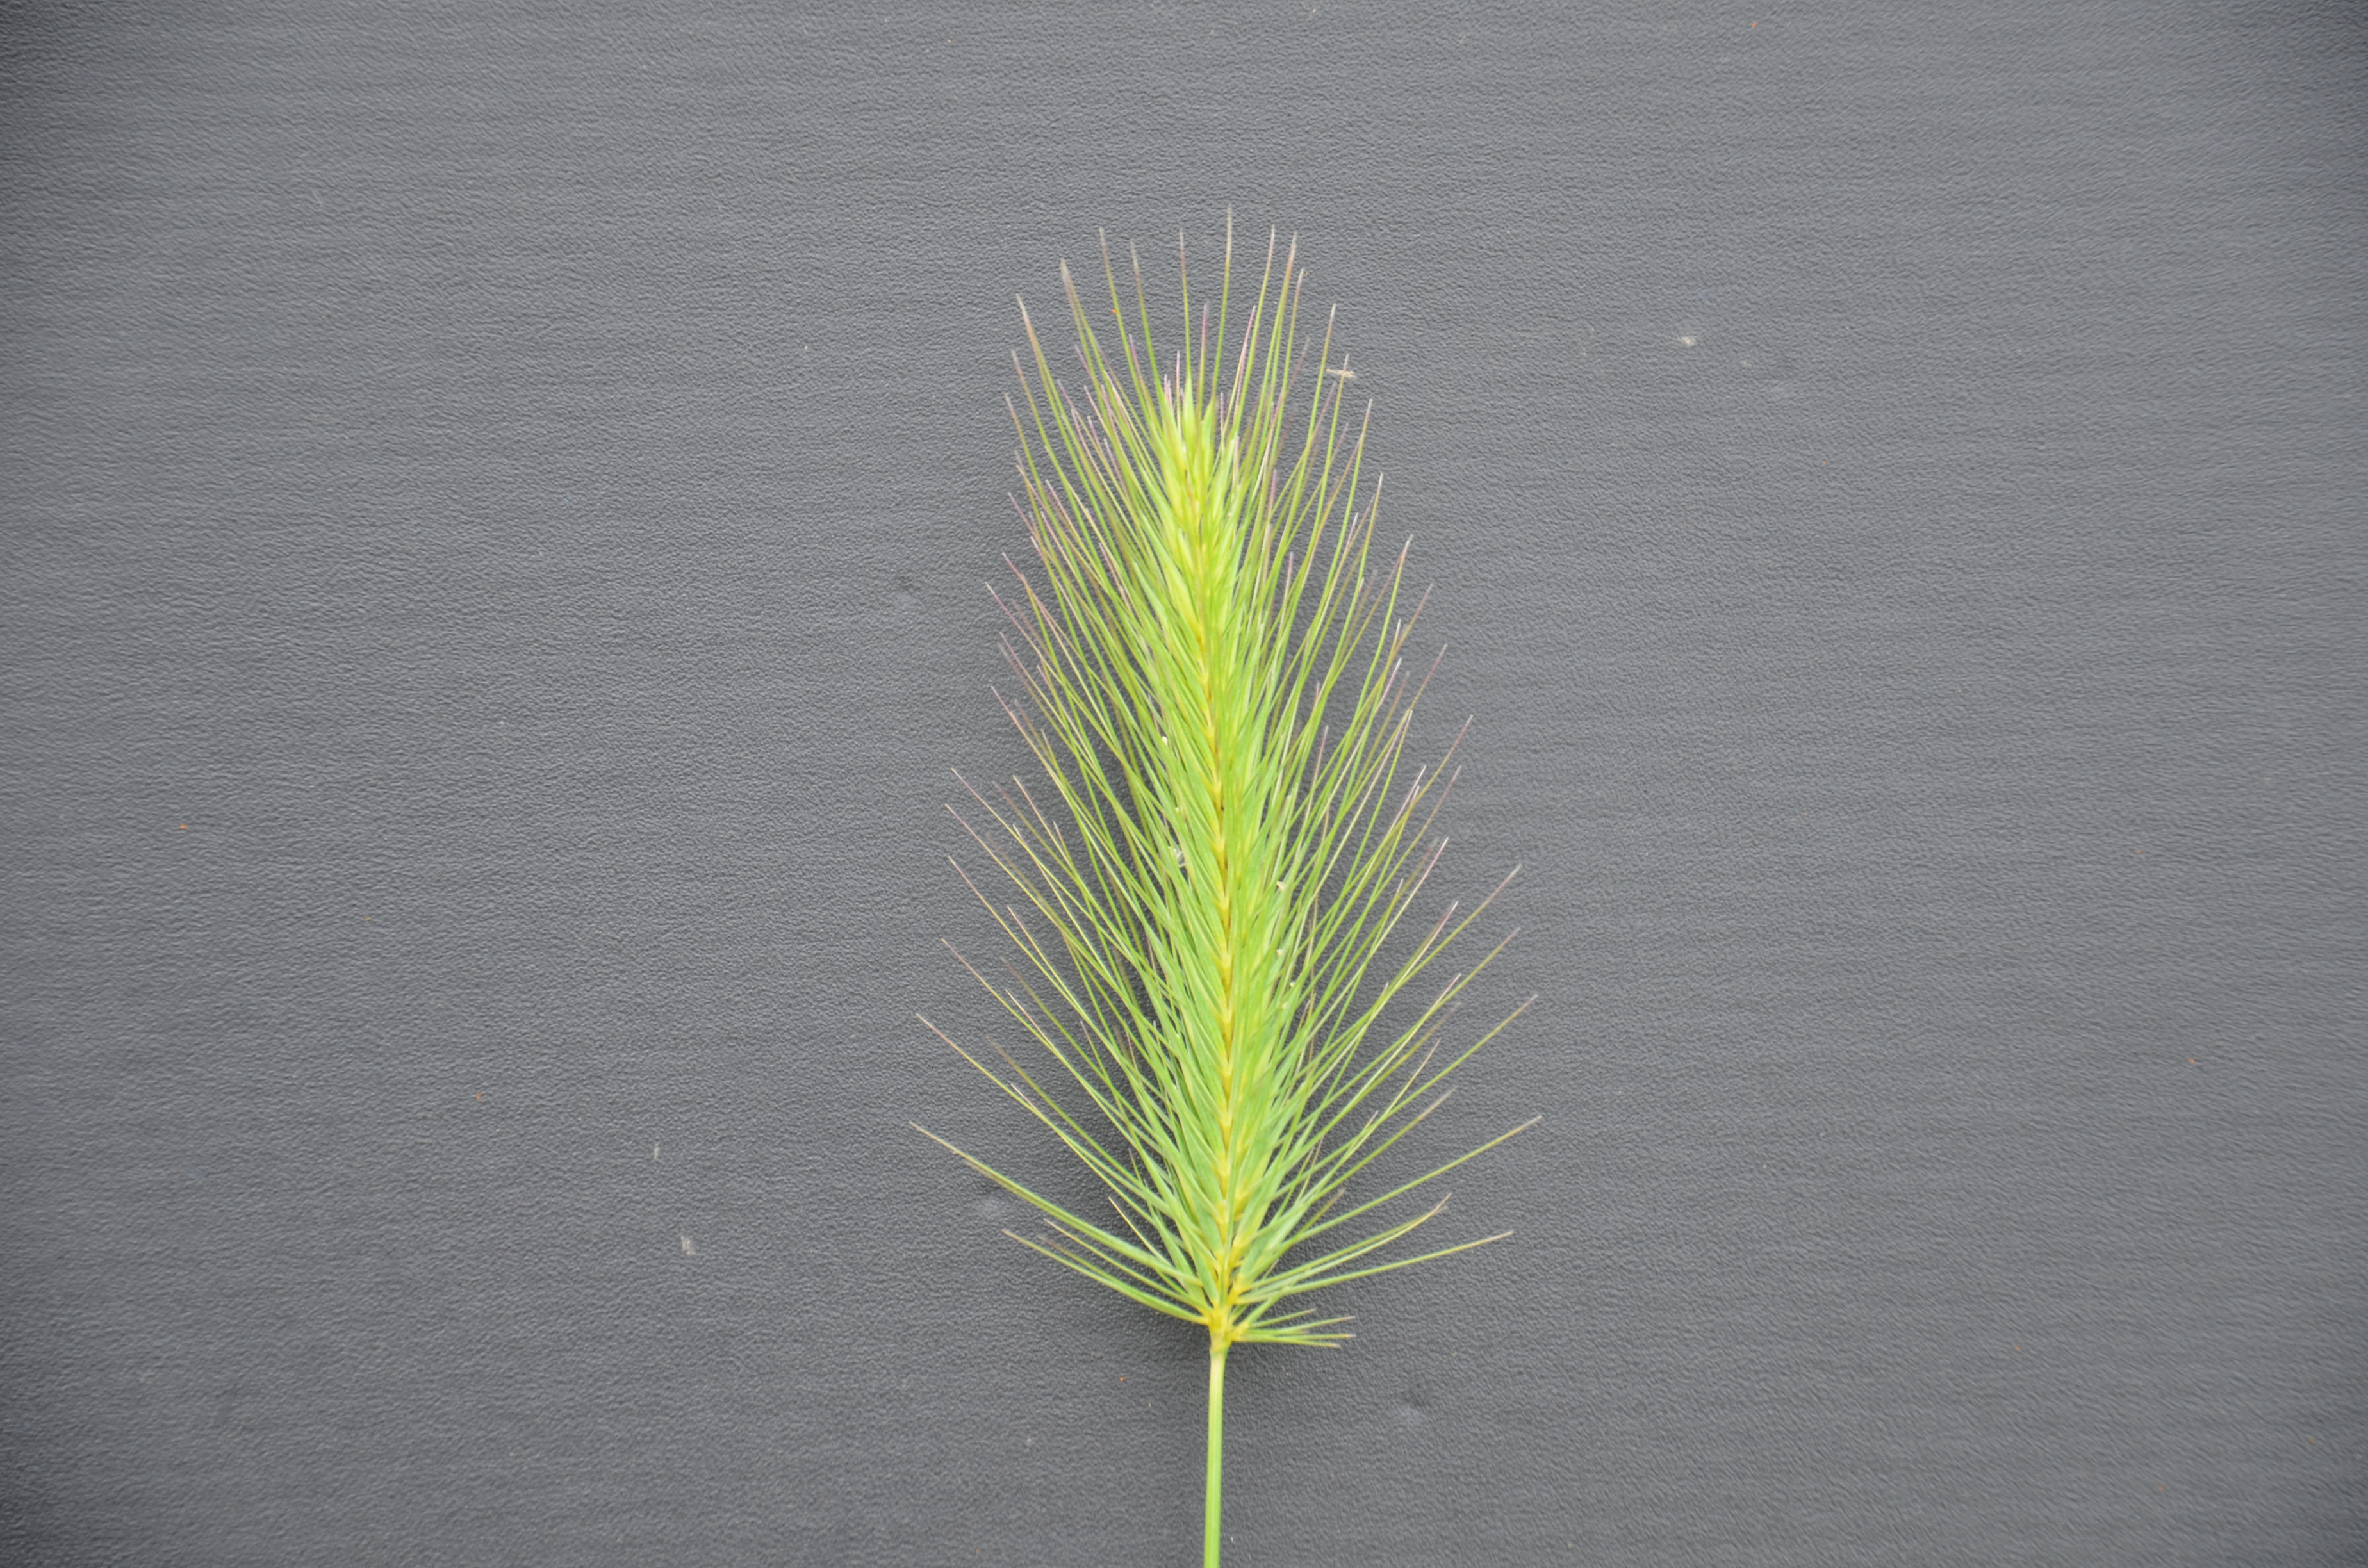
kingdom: Plantae
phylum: Tracheophyta
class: Liliopsida
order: Poales
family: Poaceae
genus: Hordeum
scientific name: Hordeum marinum
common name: Sea barley
